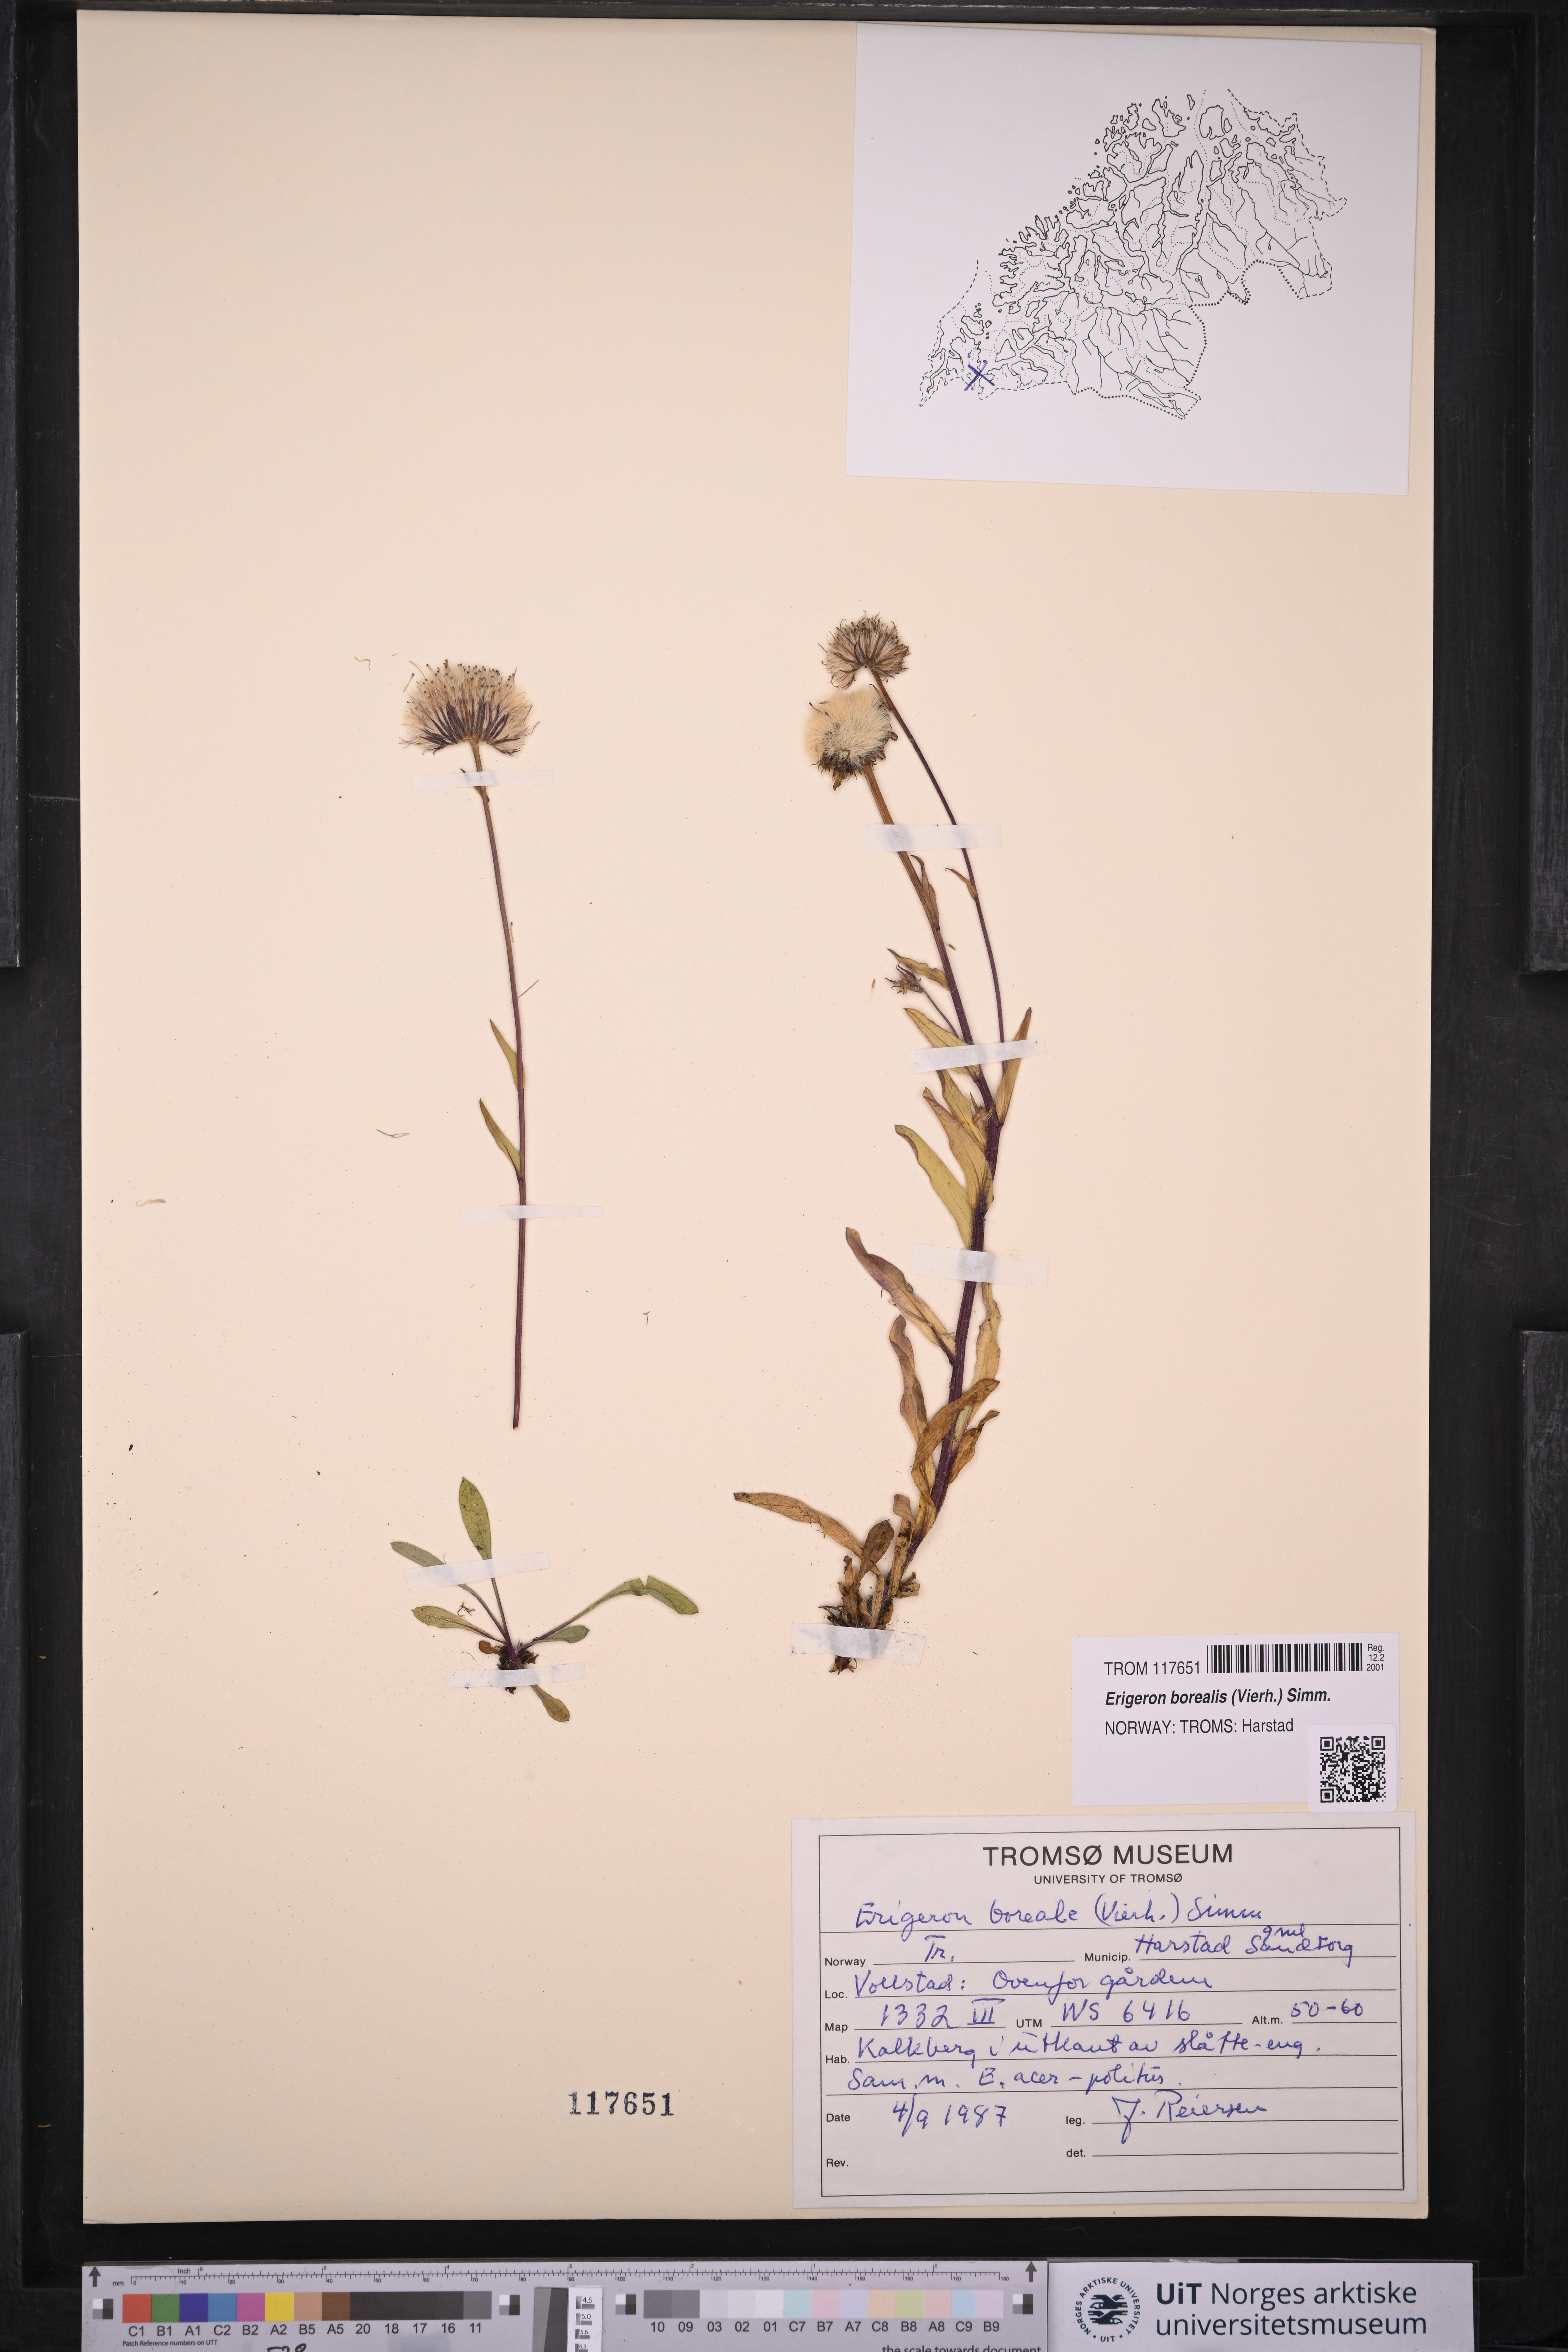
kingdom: Plantae
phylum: Tracheophyta
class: Magnoliopsida
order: Asterales
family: Asteraceae
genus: Erigeron
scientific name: Erigeron borealis
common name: Alpine fleabane
